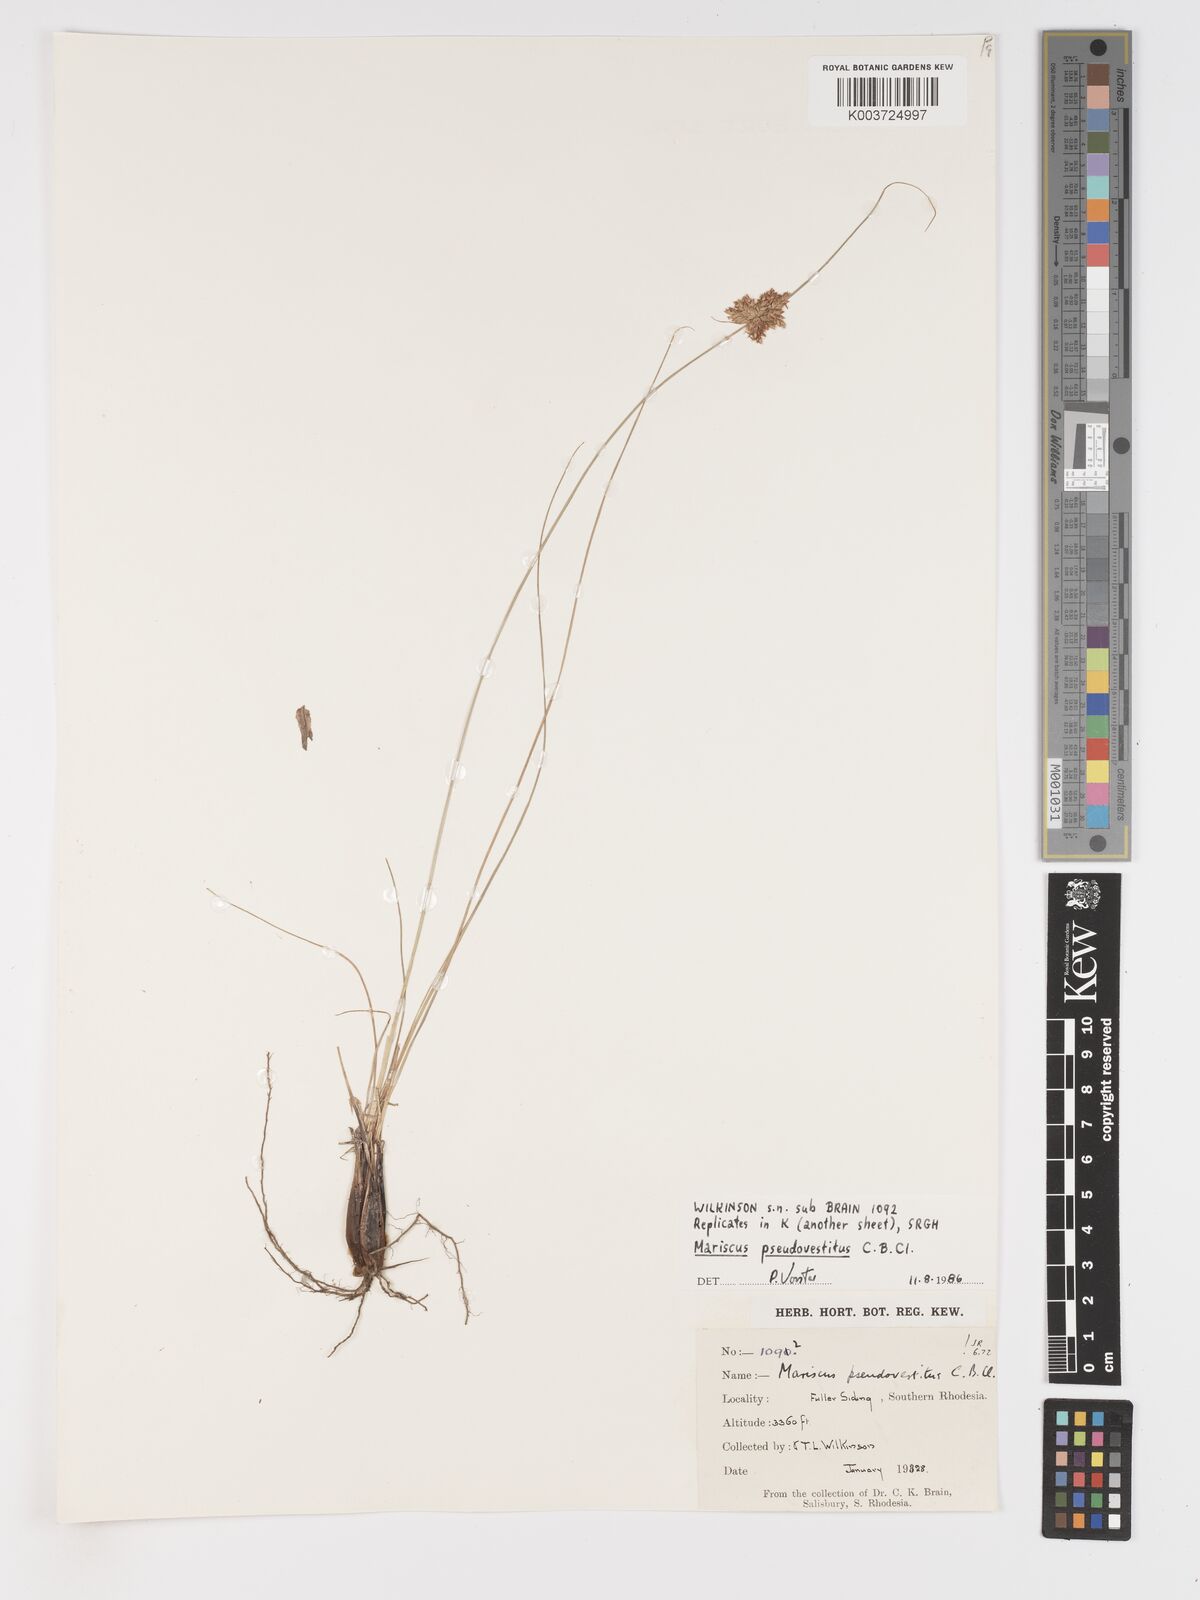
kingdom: Plantae
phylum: Tracheophyta
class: Liliopsida
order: Poales
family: Cyperaceae
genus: Cyperus
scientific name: Cyperus pseudovestitus
